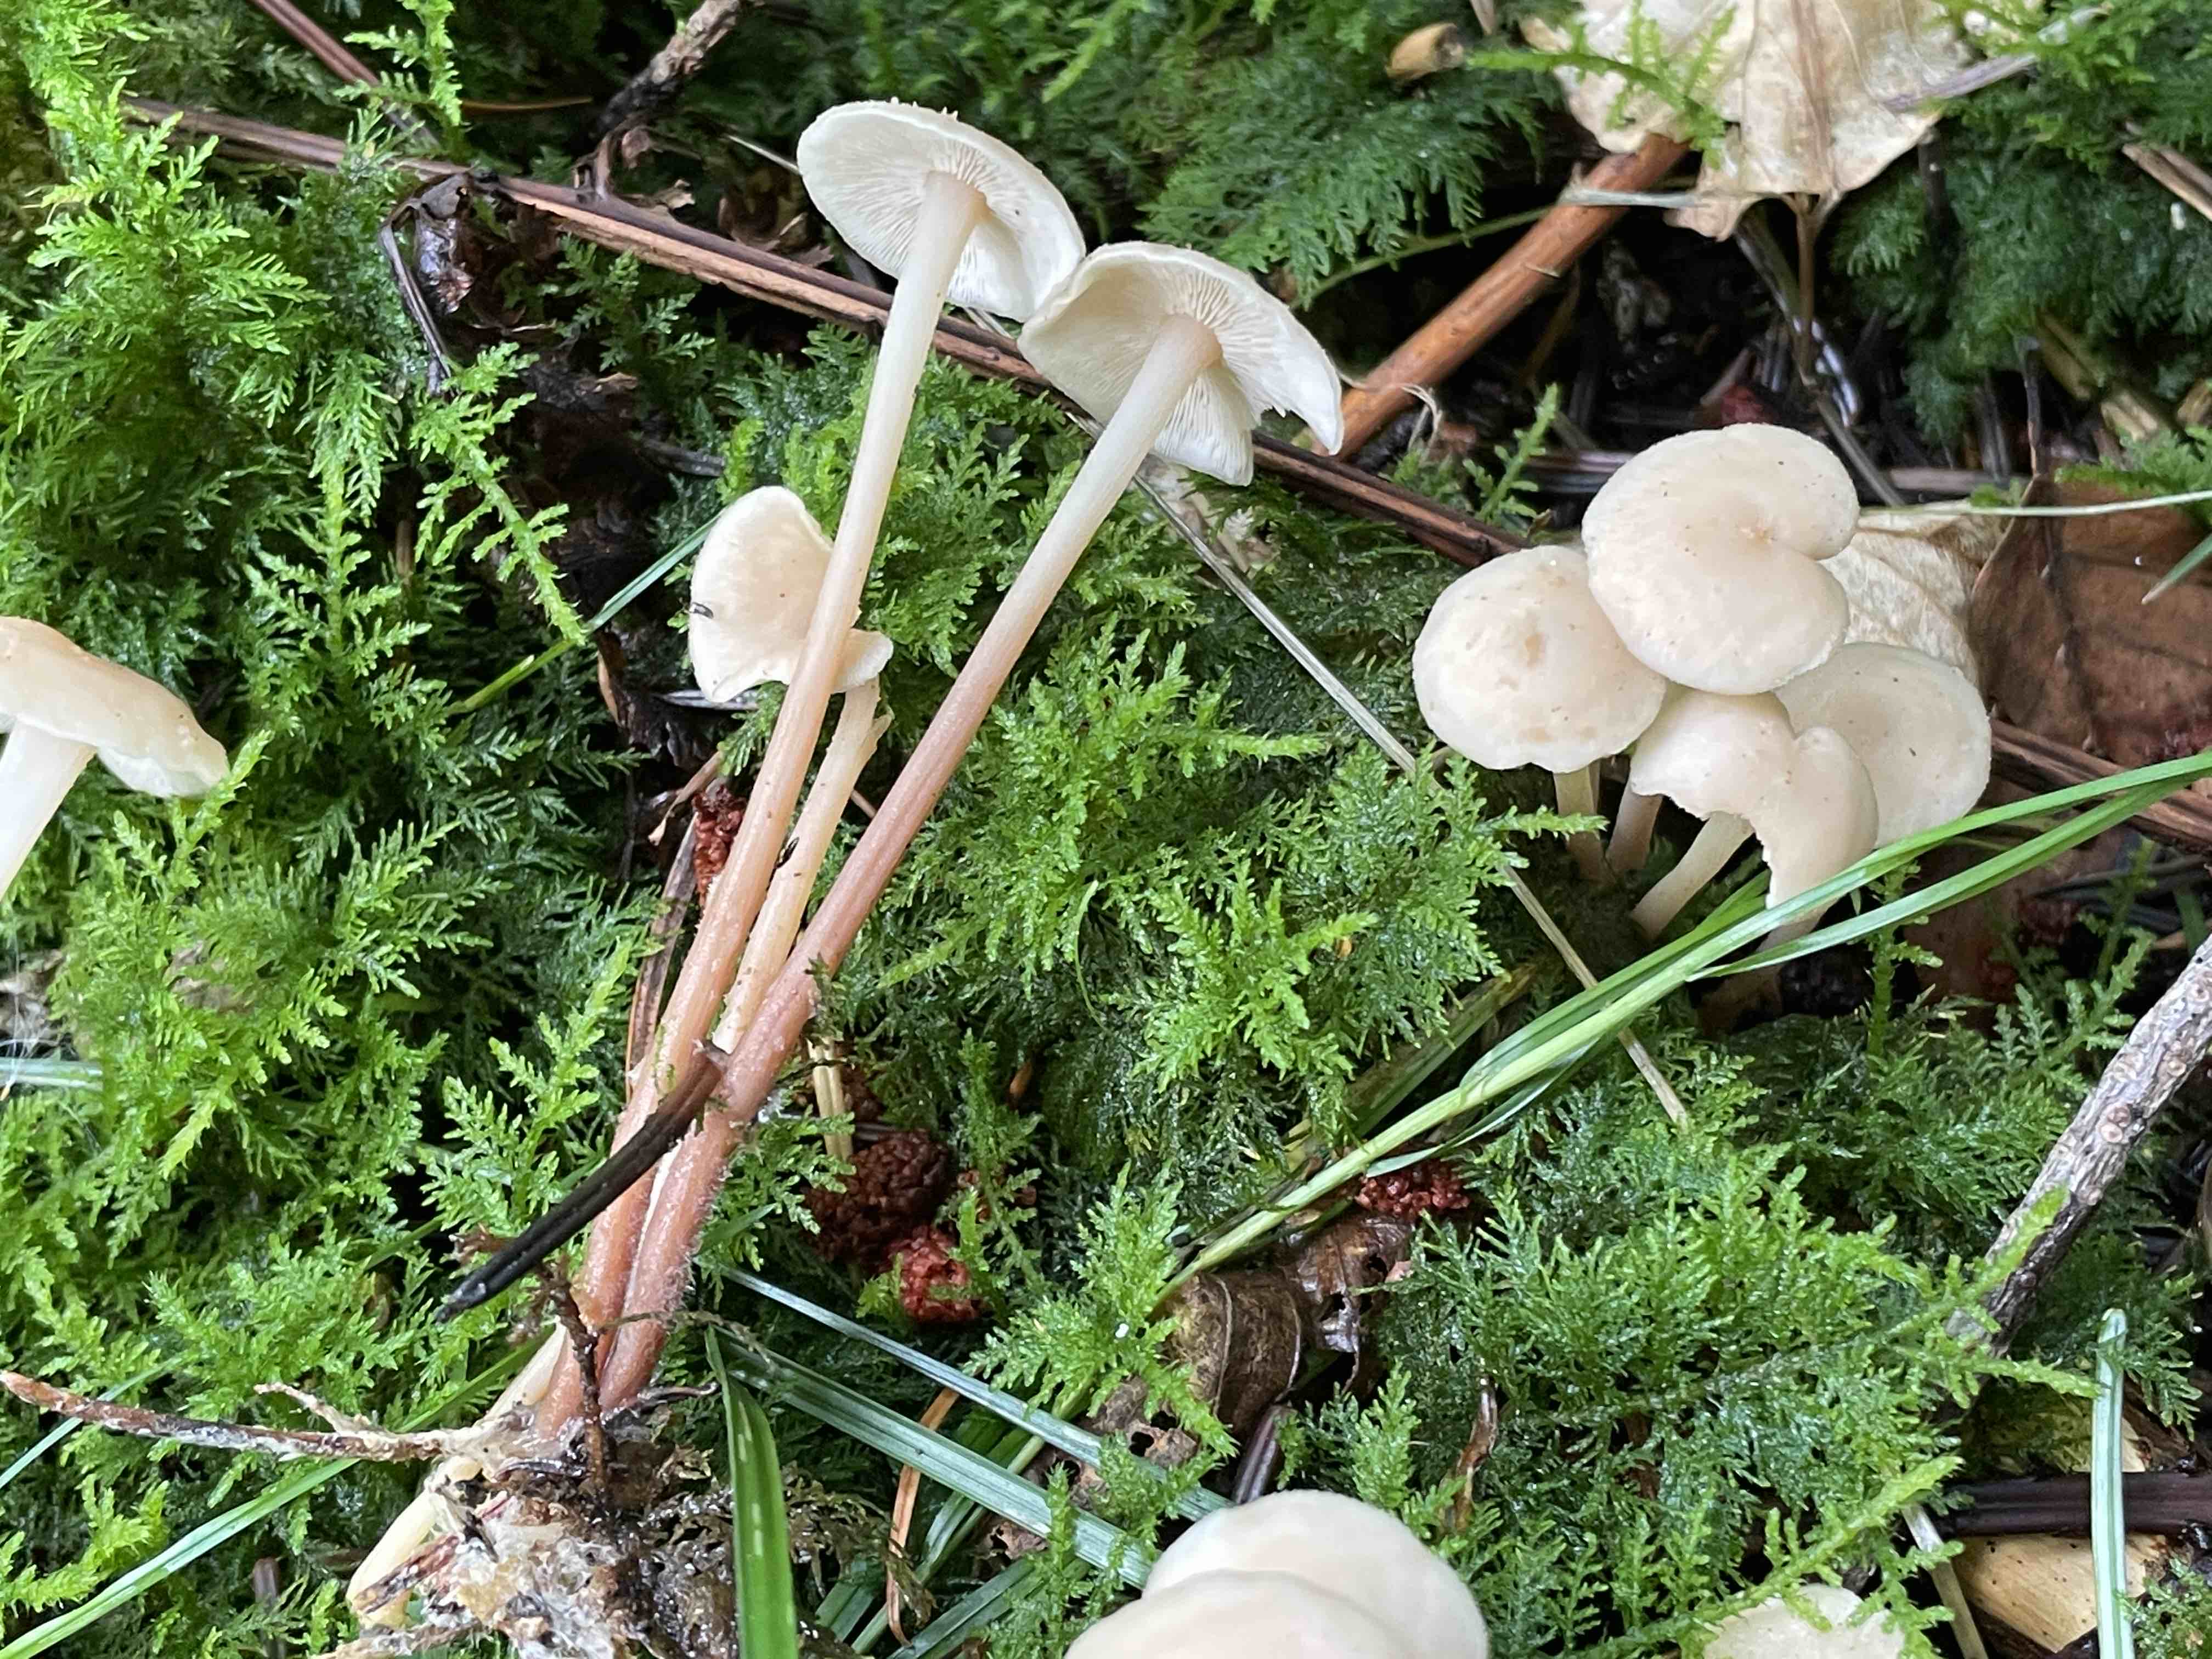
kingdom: Fungi
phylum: Basidiomycota
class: Agaricomycetes
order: Agaricales
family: Omphalotaceae
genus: Collybiopsis
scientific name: Collybiopsis confluens
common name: knippe-fladhat
